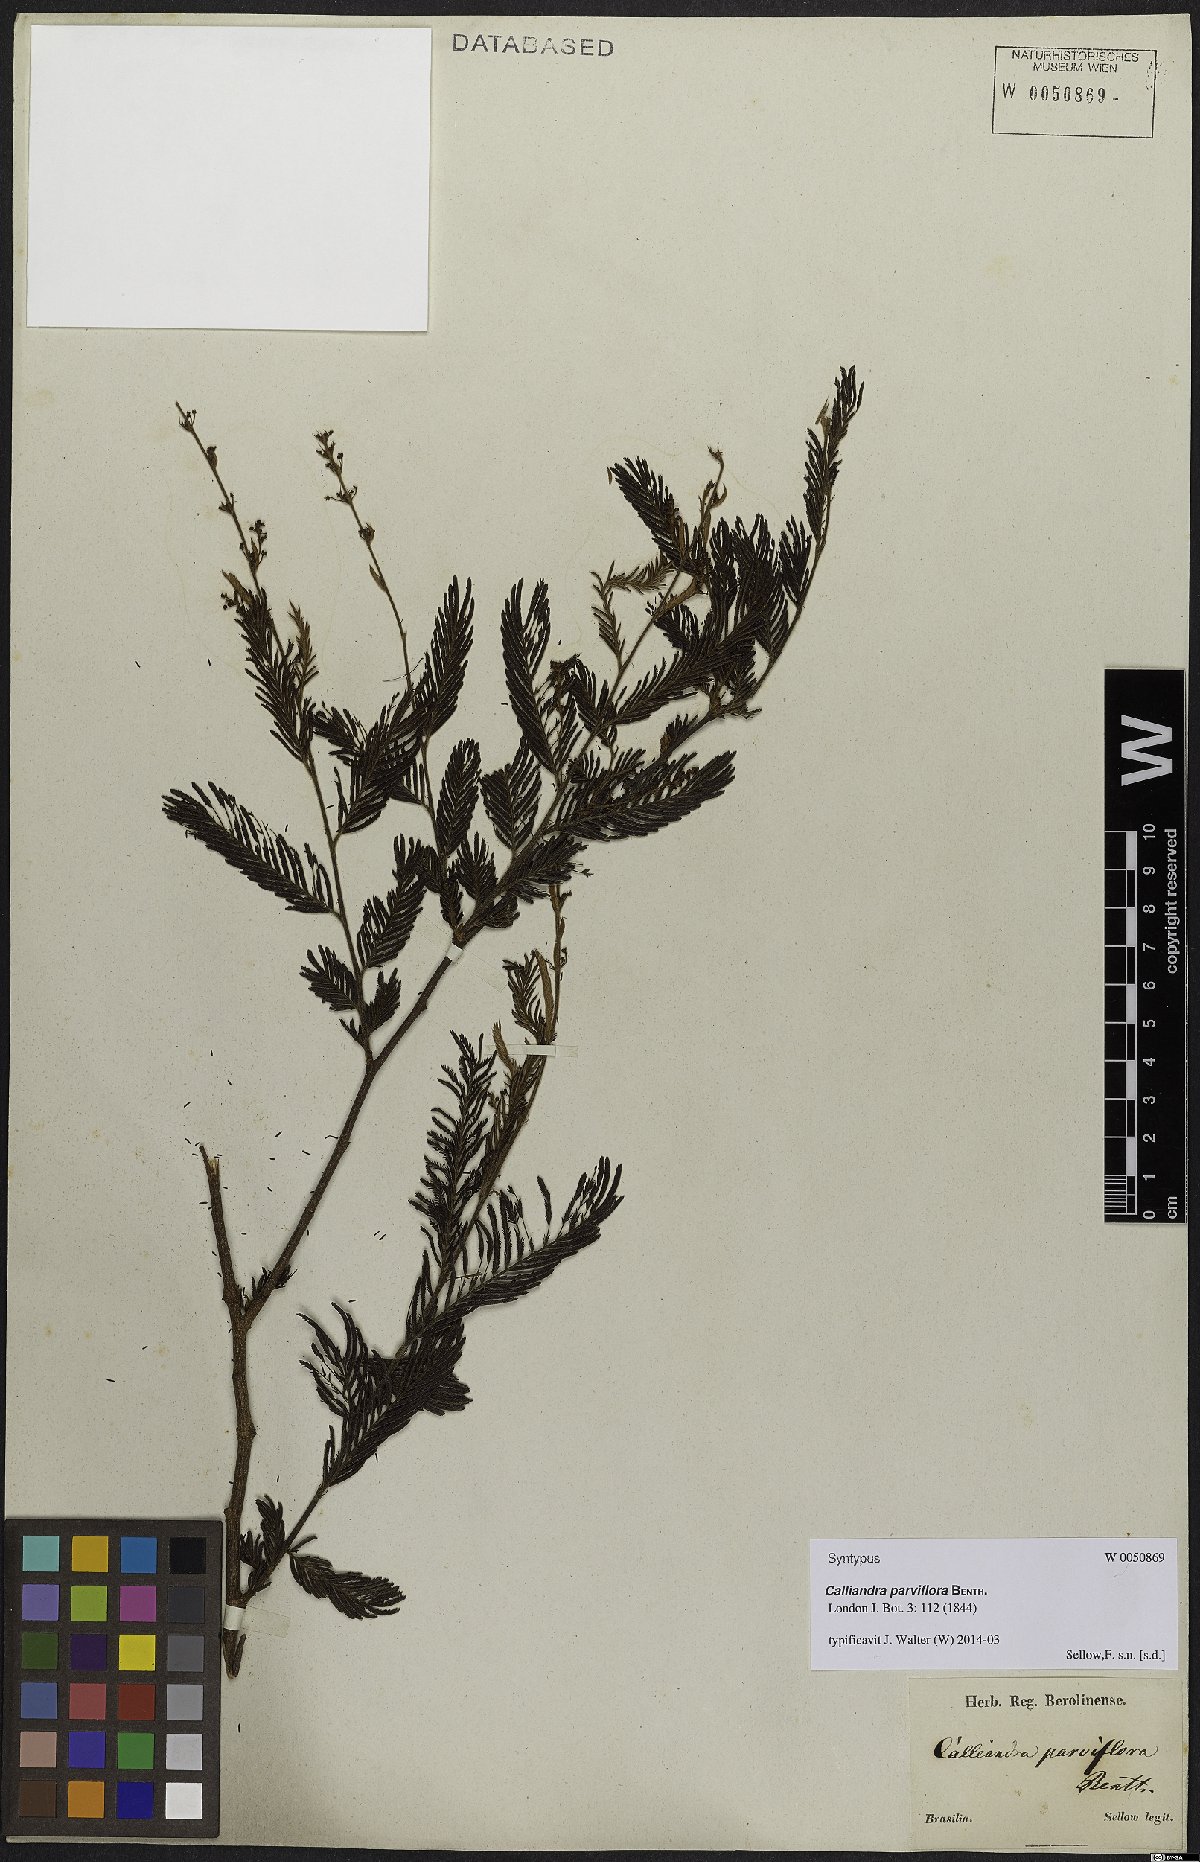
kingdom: Plantae
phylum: Tracheophyta
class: Magnoliopsida
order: Fabales
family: Fabaceae
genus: Calliandra
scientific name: Calliandra parviflora
